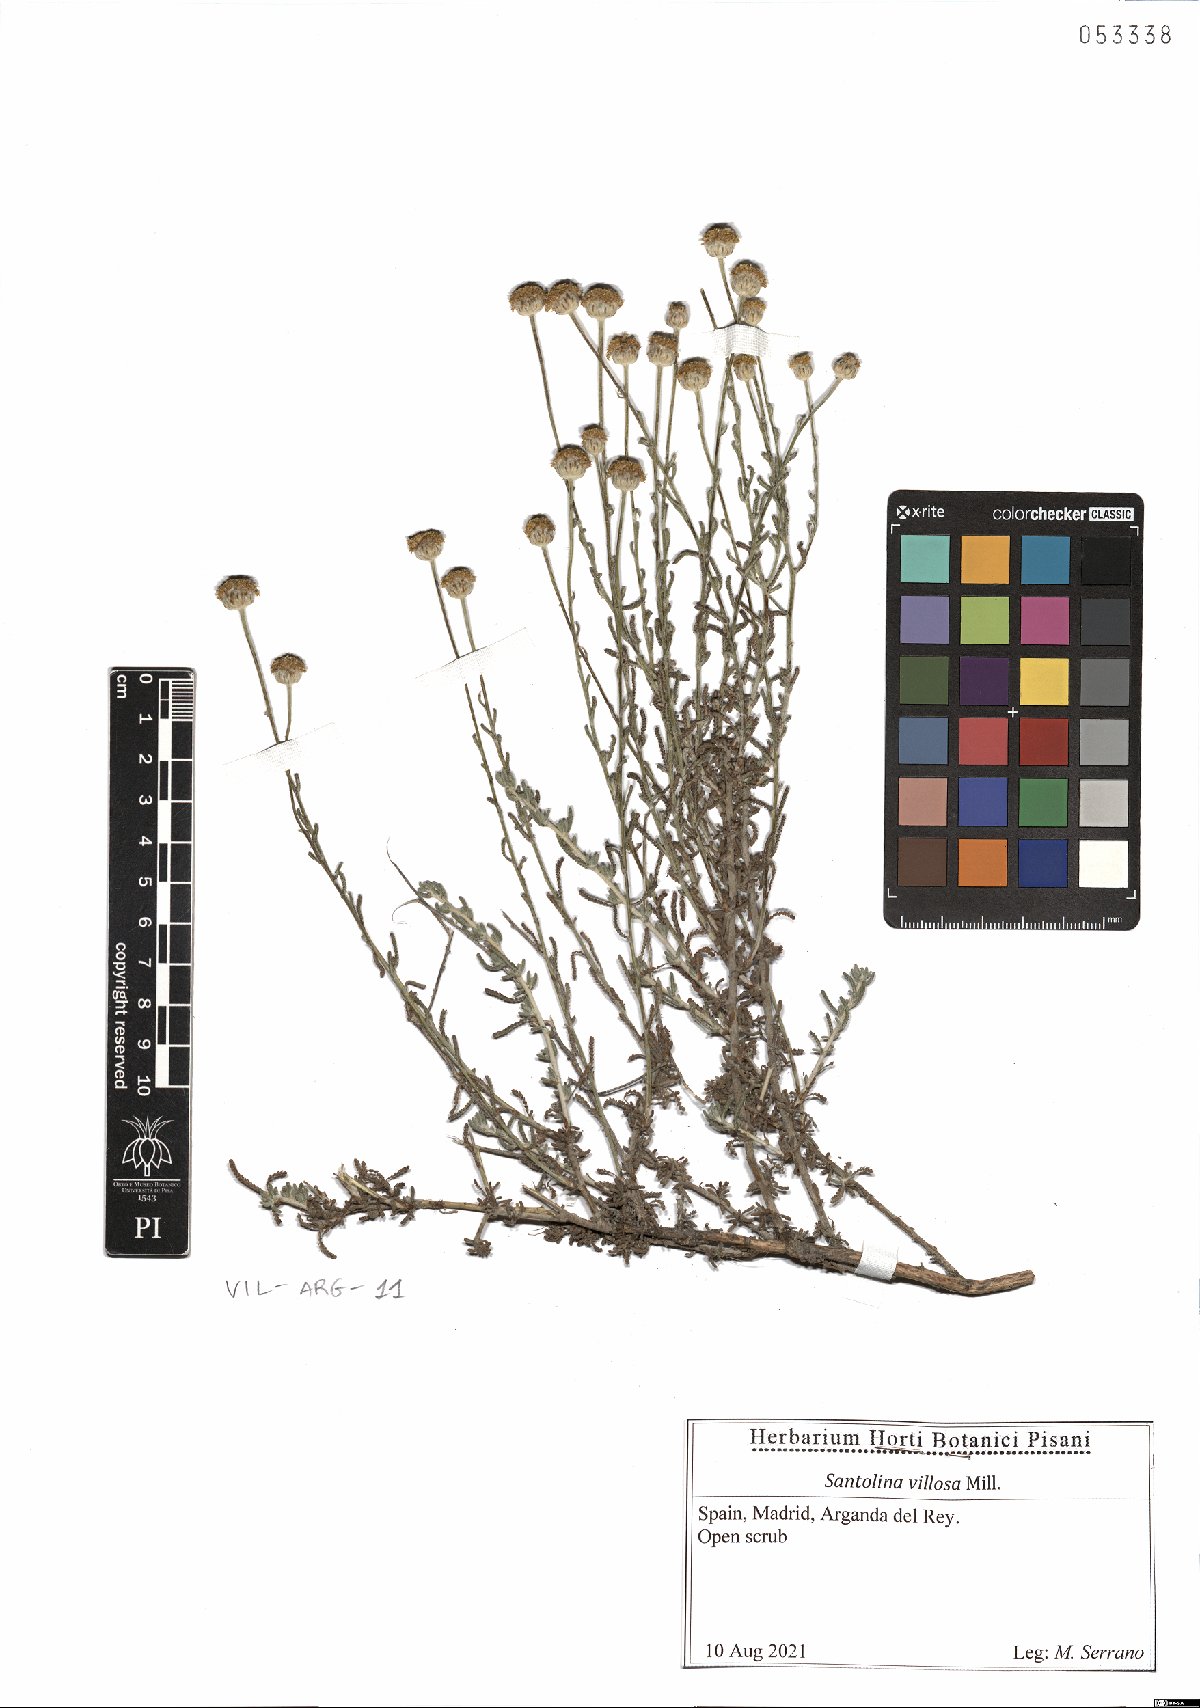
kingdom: Plantae
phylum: Tracheophyta
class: Magnoliopsida
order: Asterales
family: Asteraceae
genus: Santolina
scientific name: Santolina chamaecyparissus
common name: Lavender-cotton
